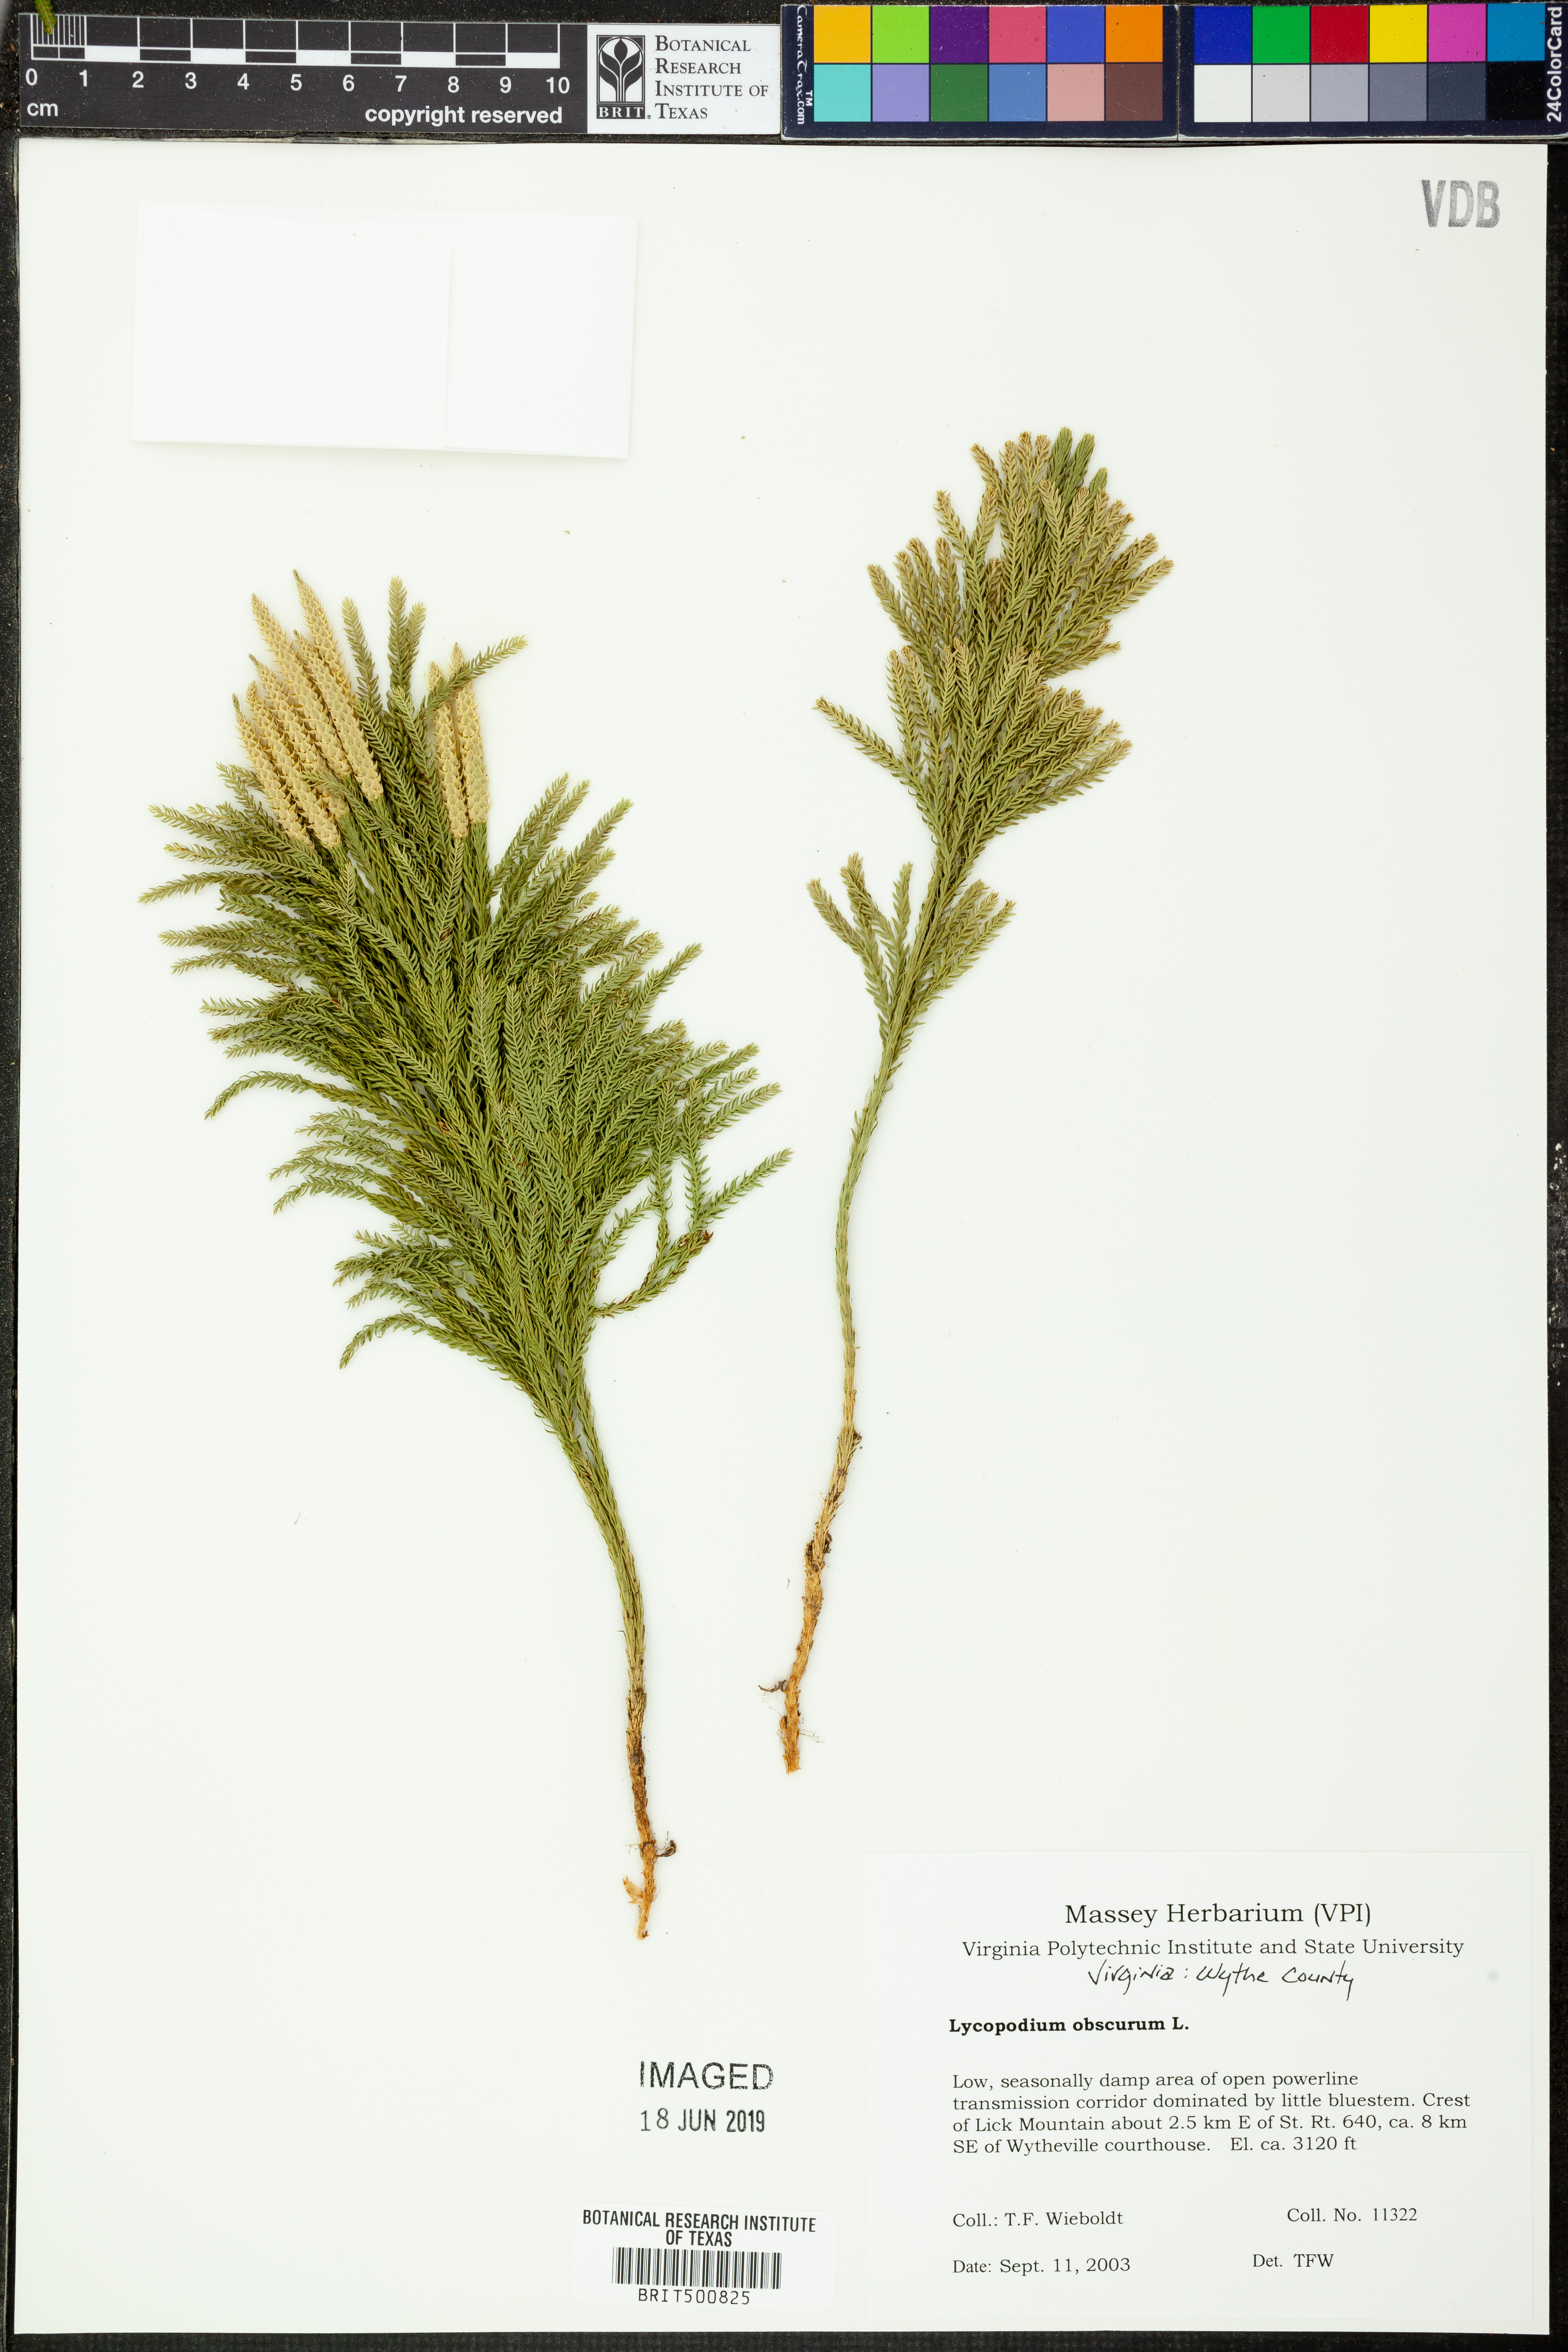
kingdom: Plantae
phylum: Tracheophyta
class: Lycopodiopsida
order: Lycopodiales
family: Lycopodiaceae
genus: Dendrolycopodium
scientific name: Dendrolycopodium obscurum
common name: Common ground-pine
